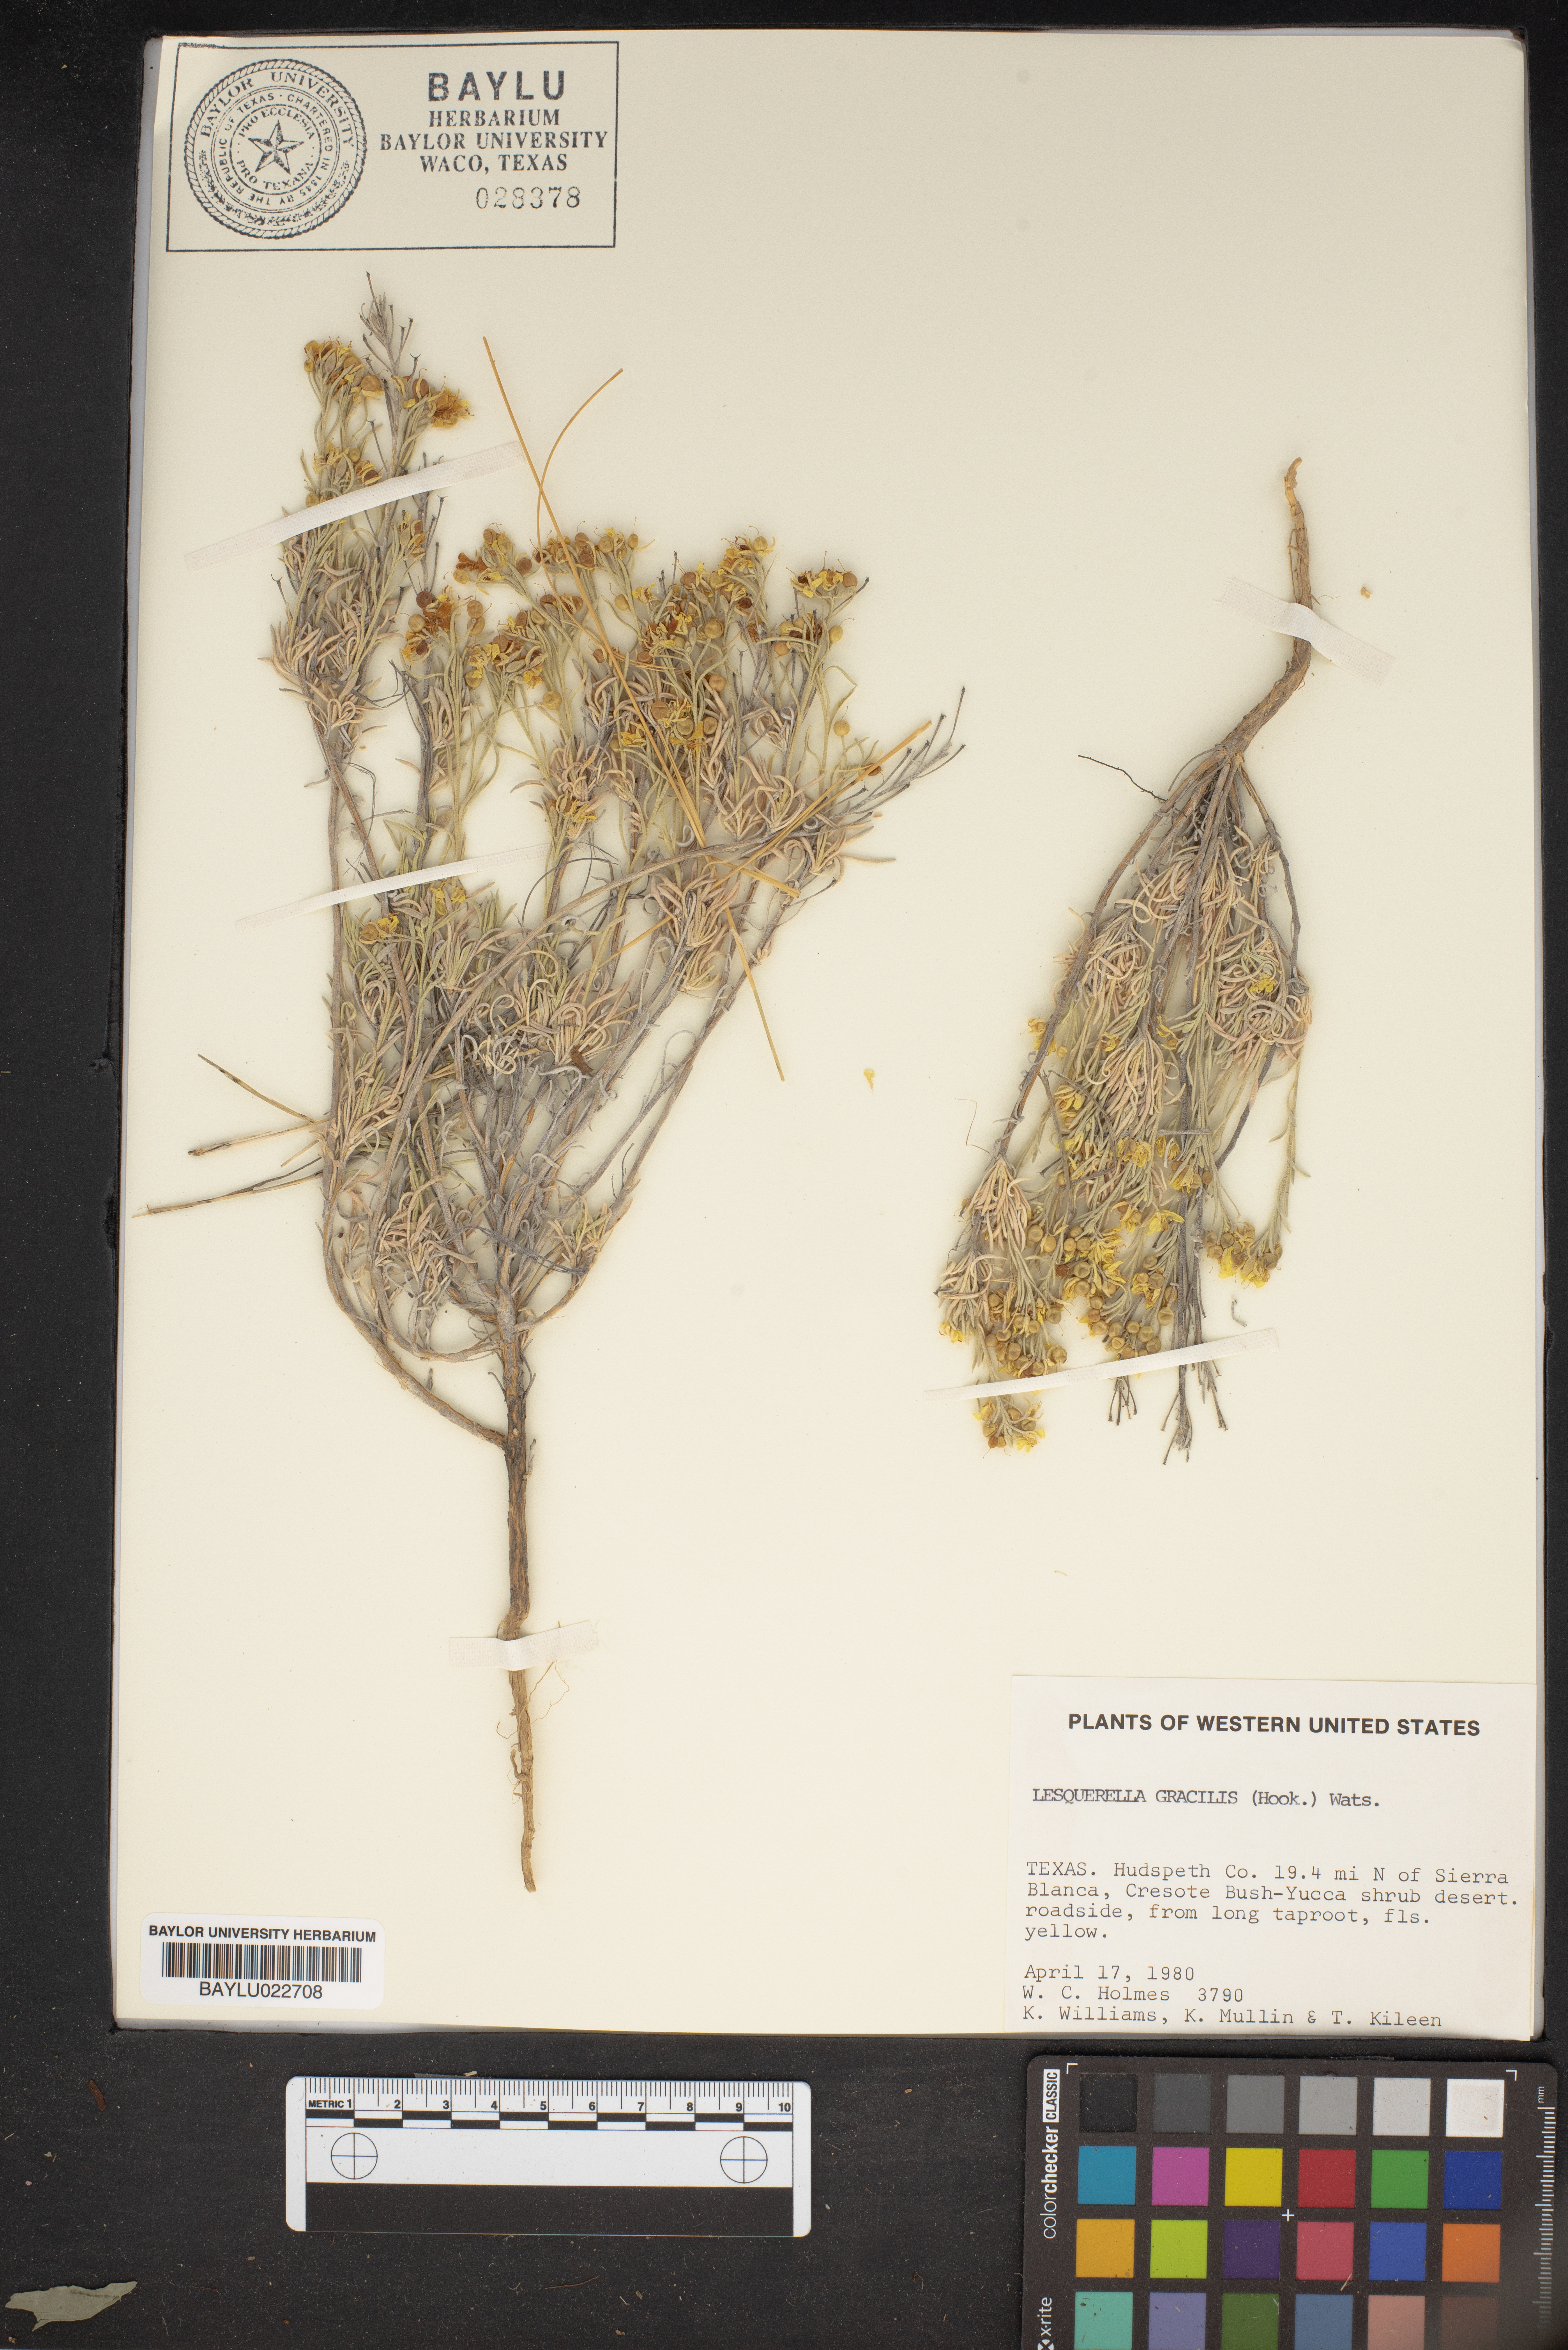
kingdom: Plantae
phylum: Tracheophyta
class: Magnoliopsida
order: Brassicales
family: Brassicaceae
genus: Physaria
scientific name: Physaria gracilis
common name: Spreading bladderpod
